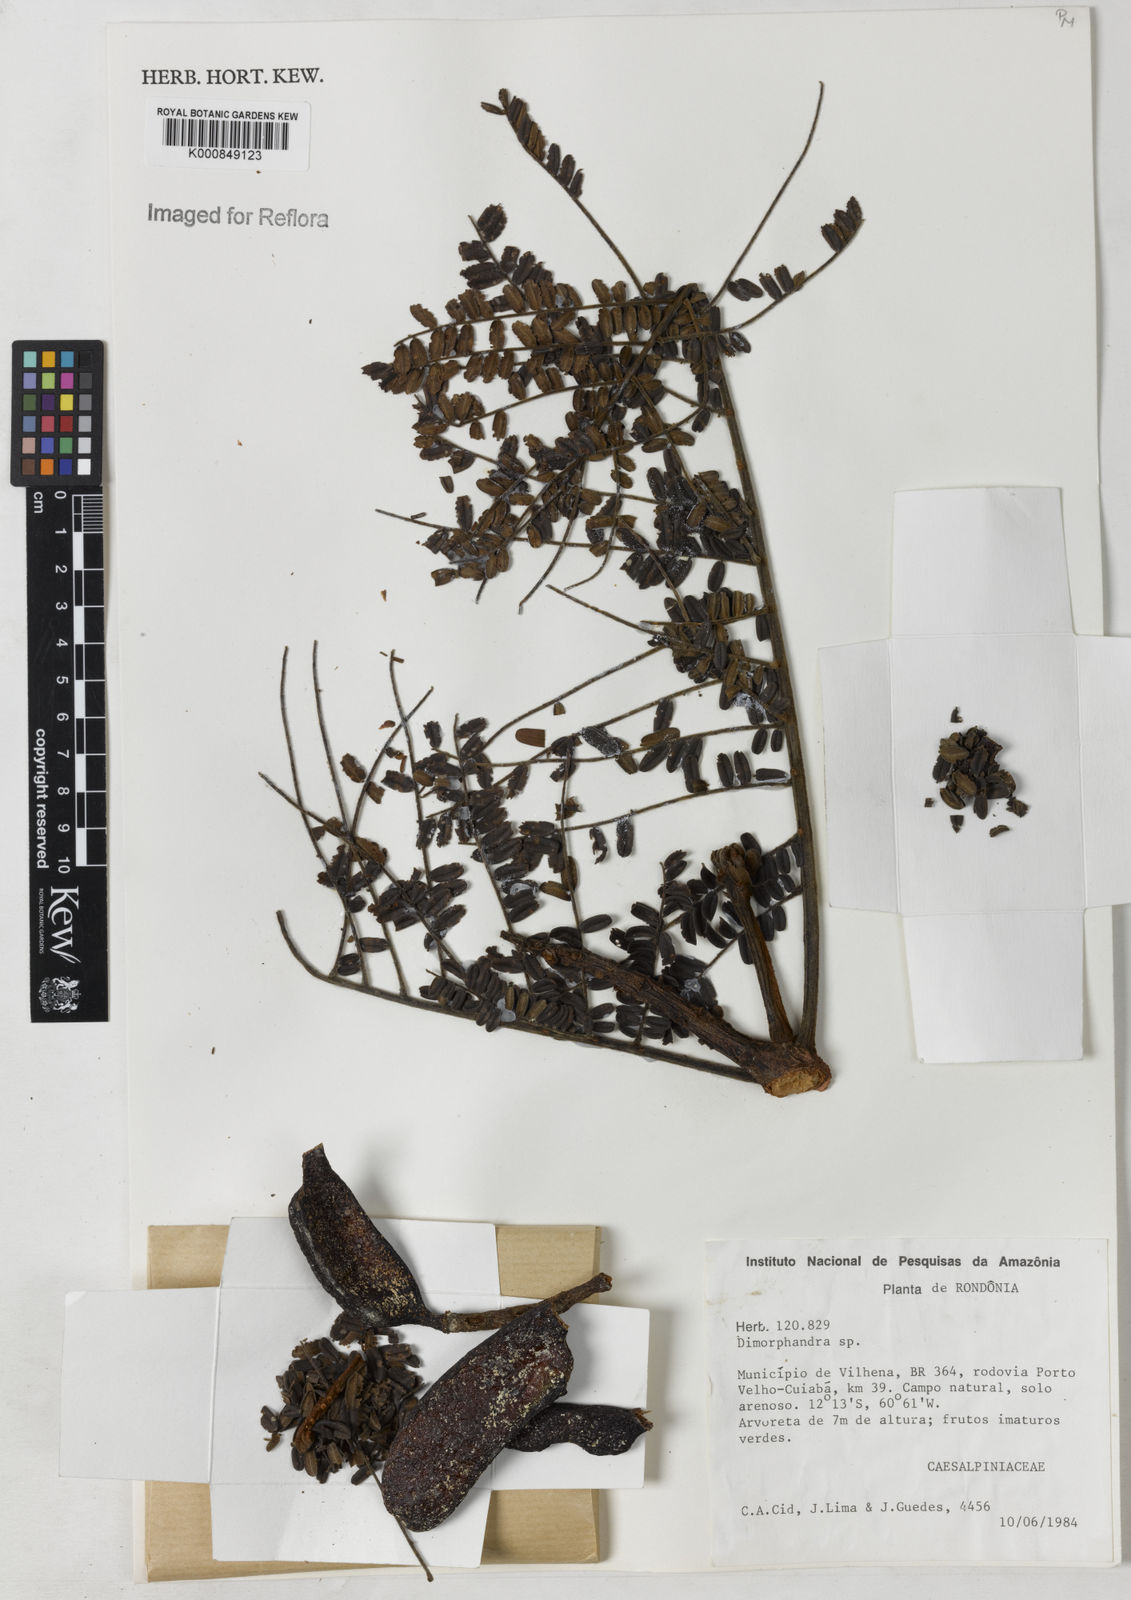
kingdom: Plantae
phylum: Tracheophyta
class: Magnoliopsida
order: Fabales
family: Fabaceae
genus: Dimorphandra
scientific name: Dimorphandra
